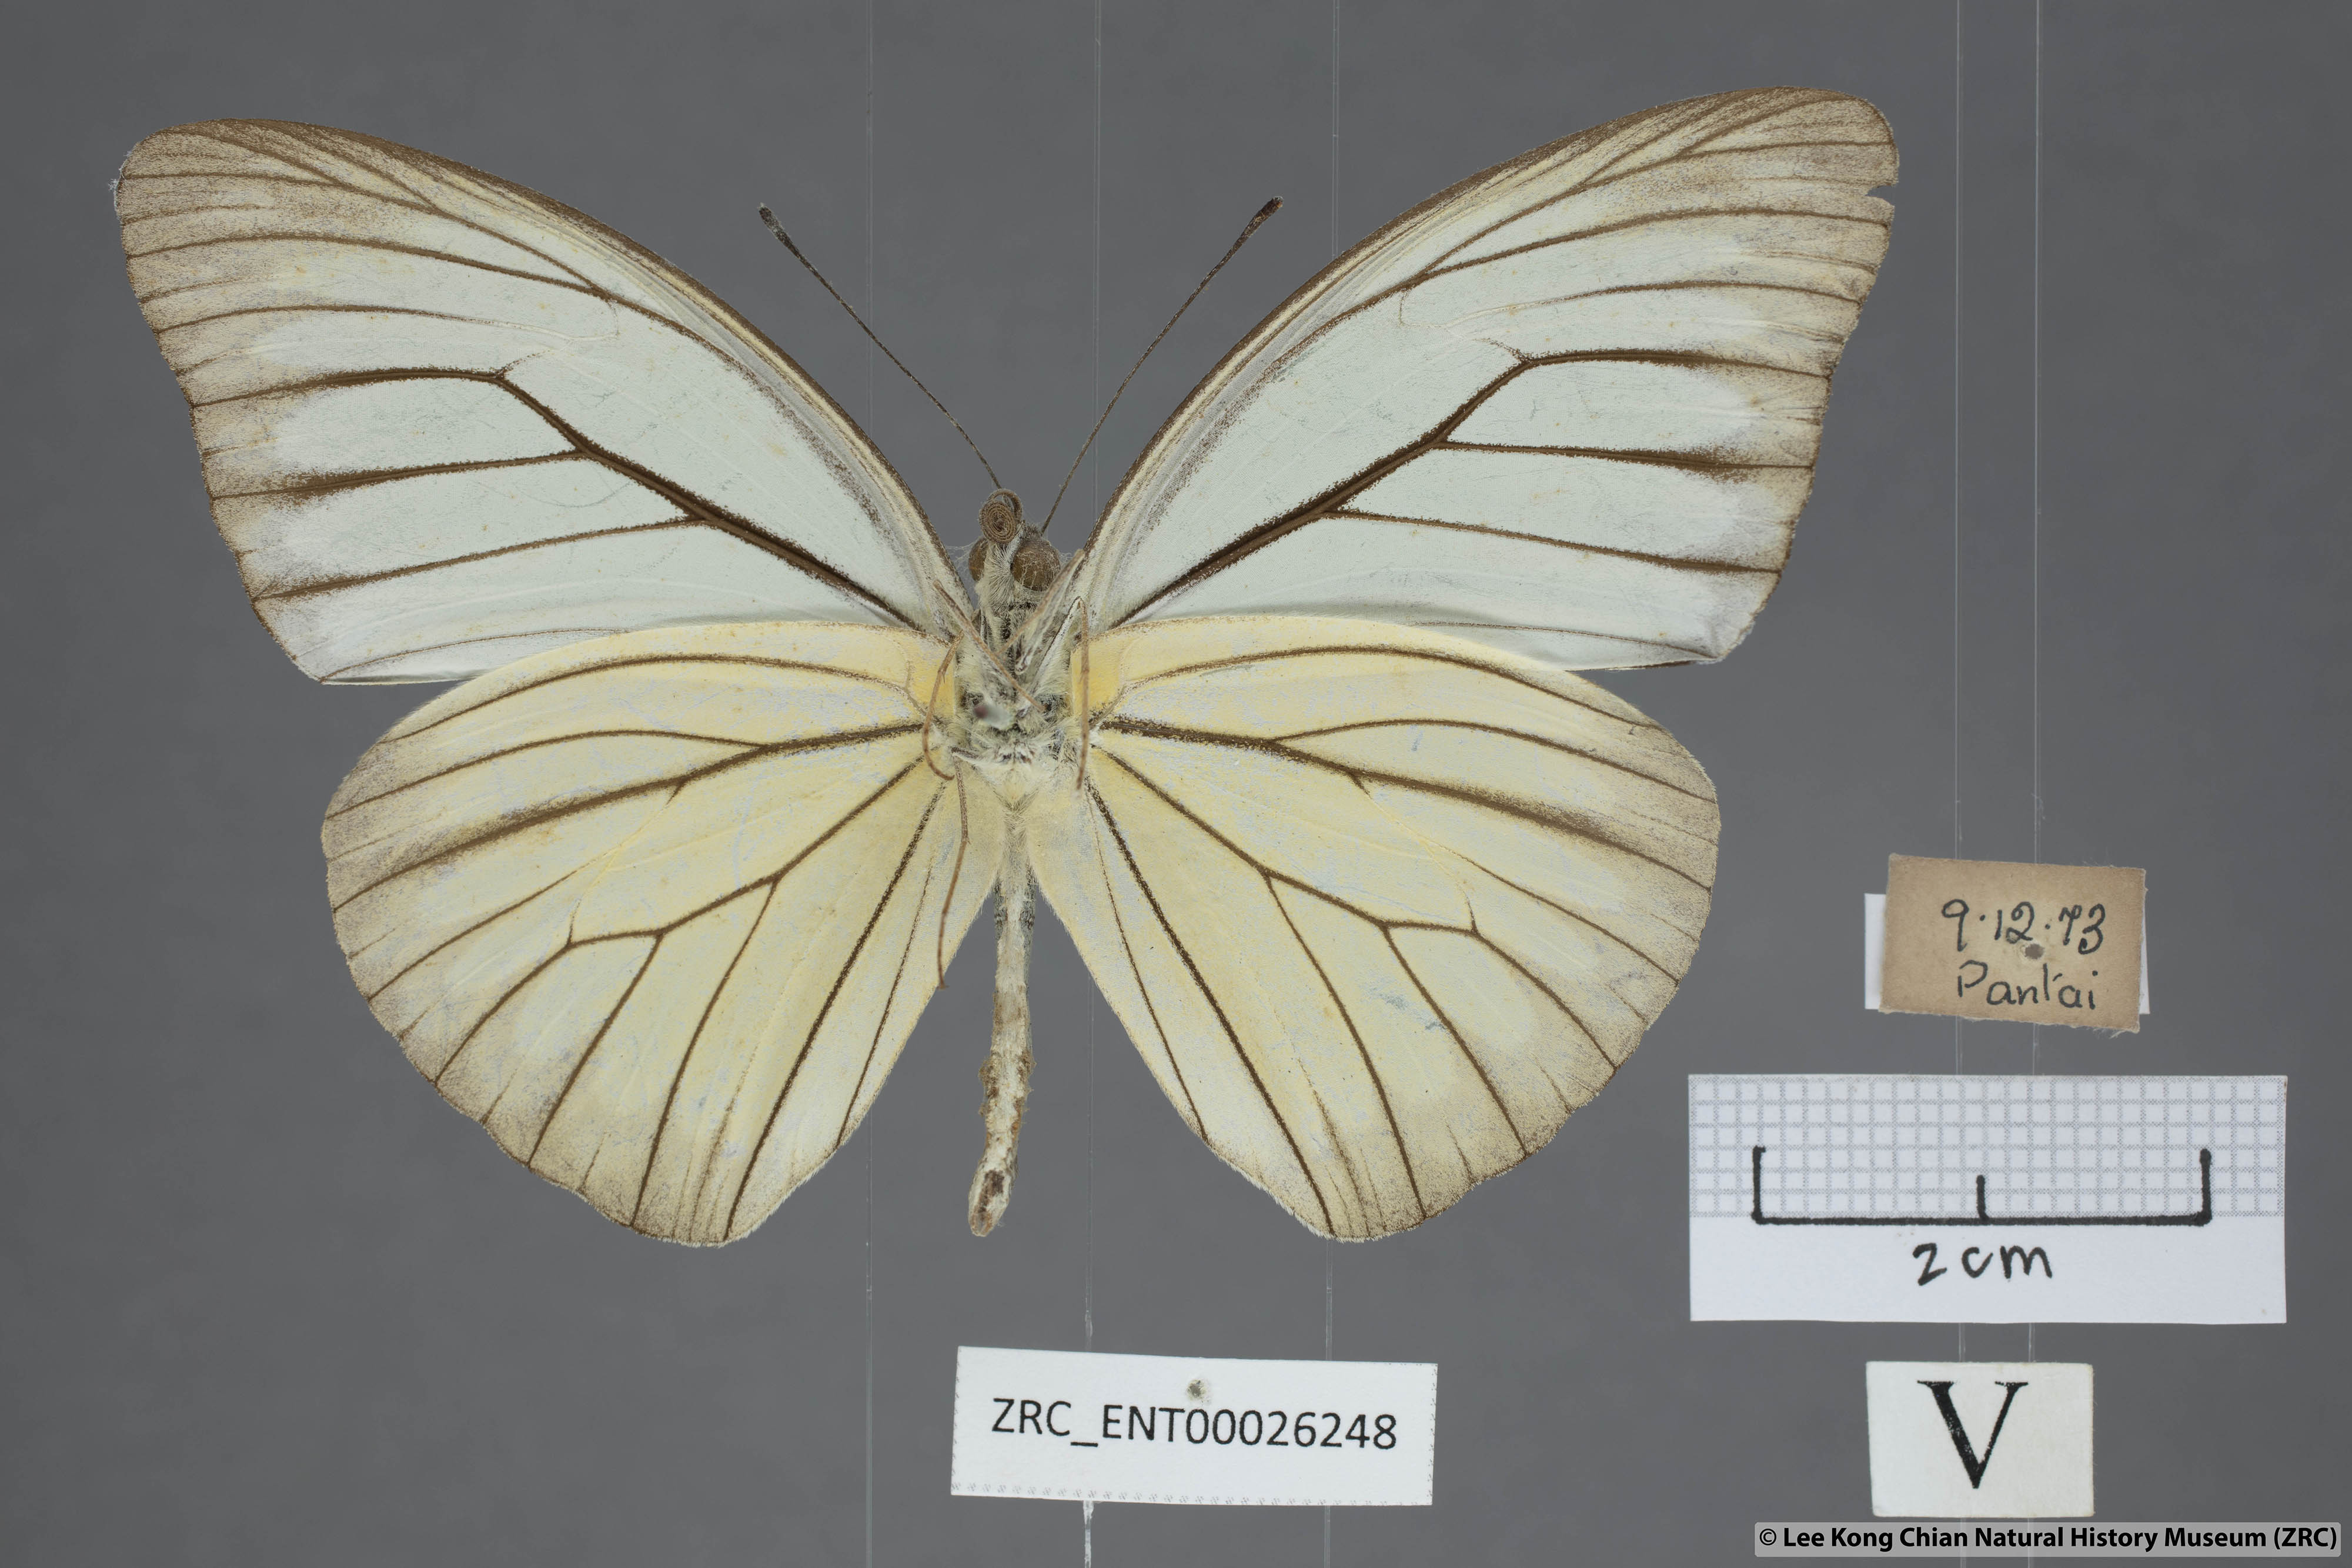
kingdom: Animalia
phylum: Arthropoda
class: Insecta
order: Lepidoptera
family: Pieridae
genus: Pareronia
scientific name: Pareronia valeria
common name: Common wanderer?
